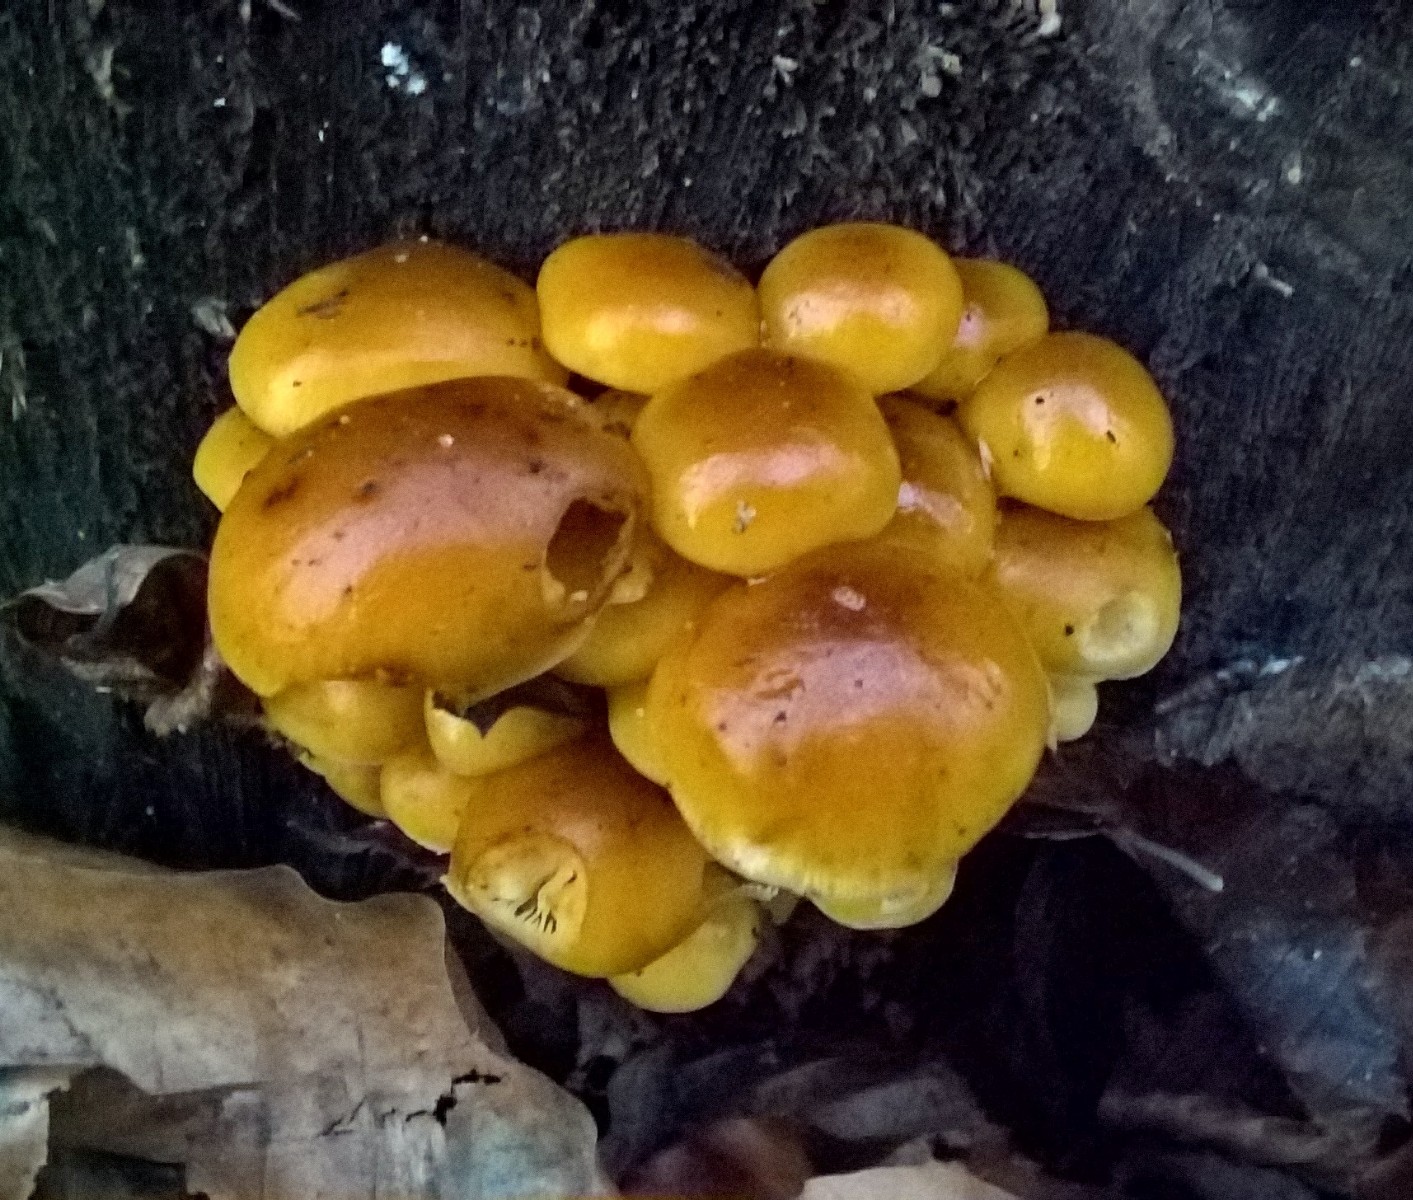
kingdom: Fungi
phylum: Basidiomycota
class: Agaricomycetes
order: Agaricales
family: Physalacriaceae
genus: Flammulina
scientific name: Flammulina velutipes
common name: gul fløjlsfod
